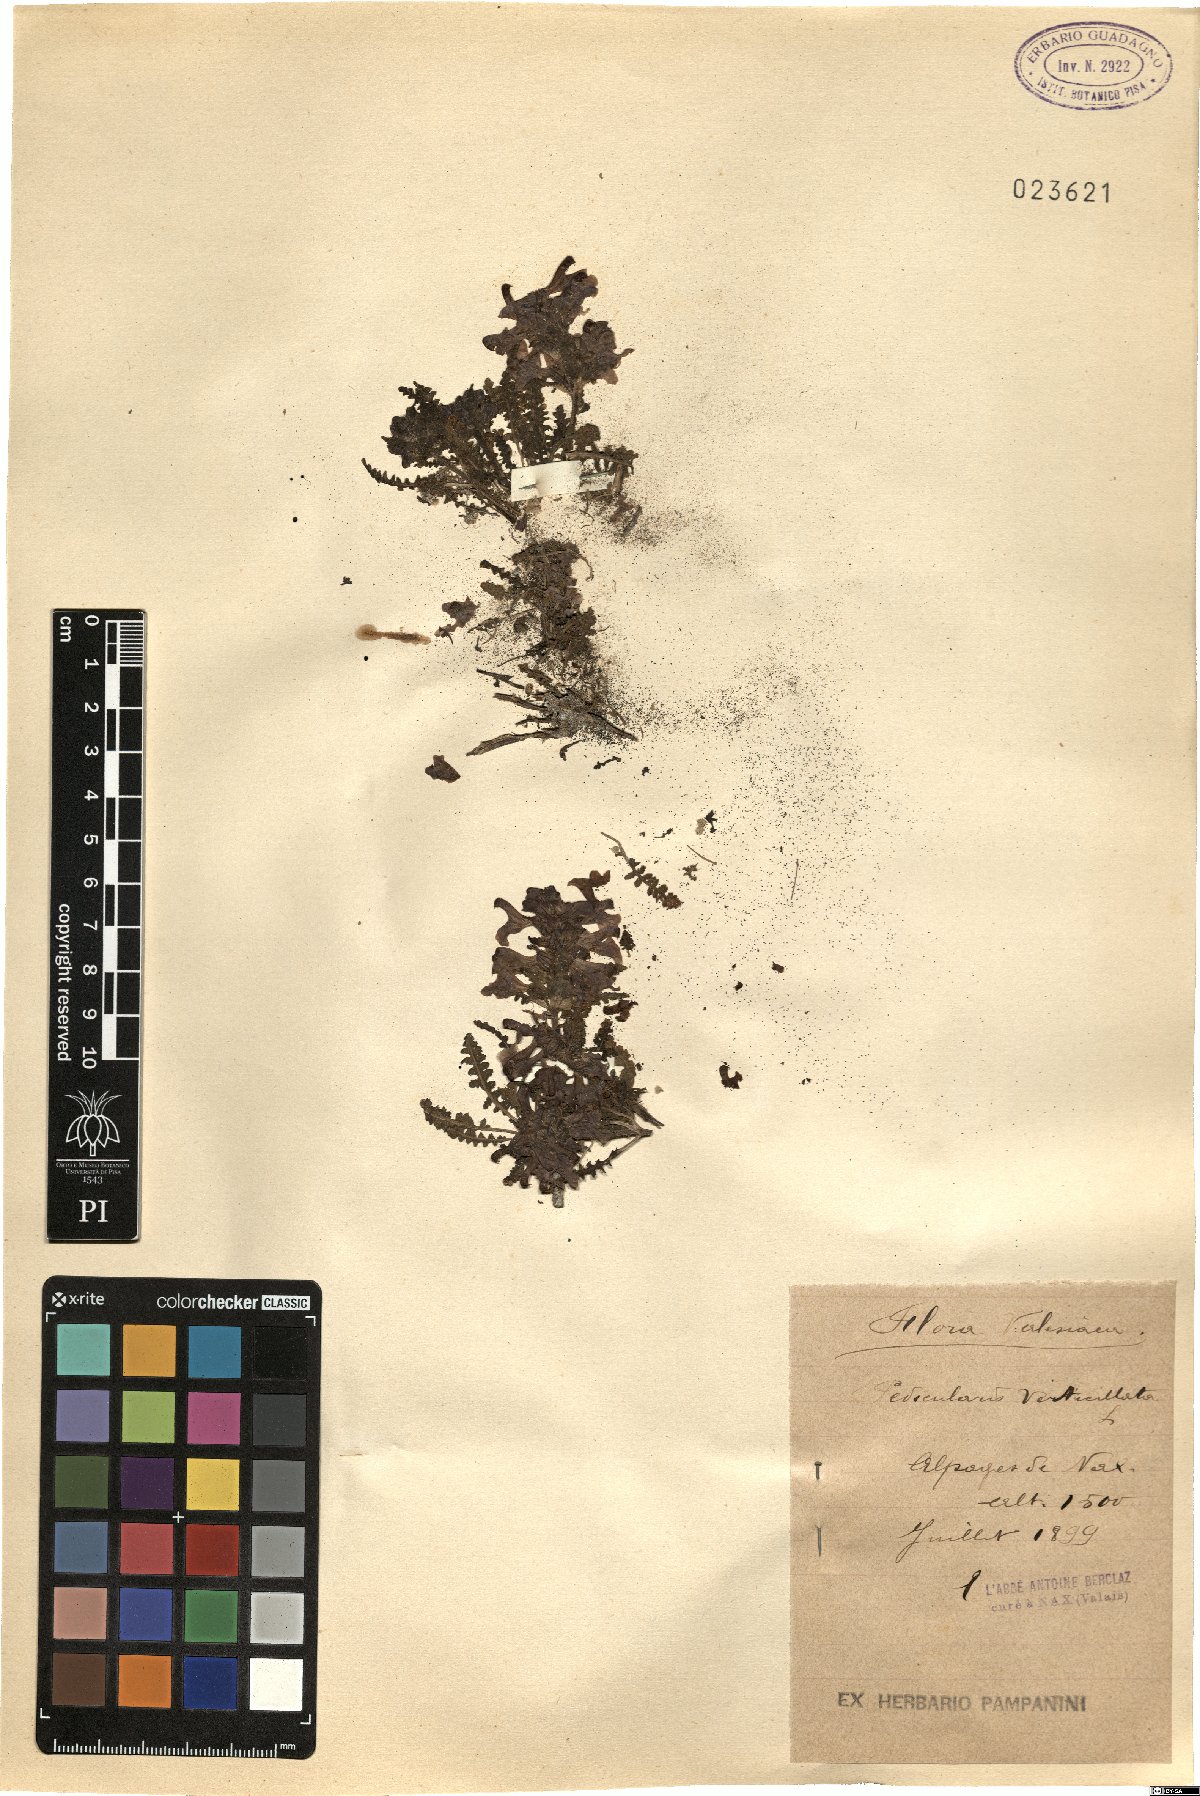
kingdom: Plantae
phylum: Tracheophyta
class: Magnoliopsida
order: Lamiales
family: Orobanchaceae
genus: Pedicularis
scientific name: Pedicularis verticillata
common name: Whorled lousewort
